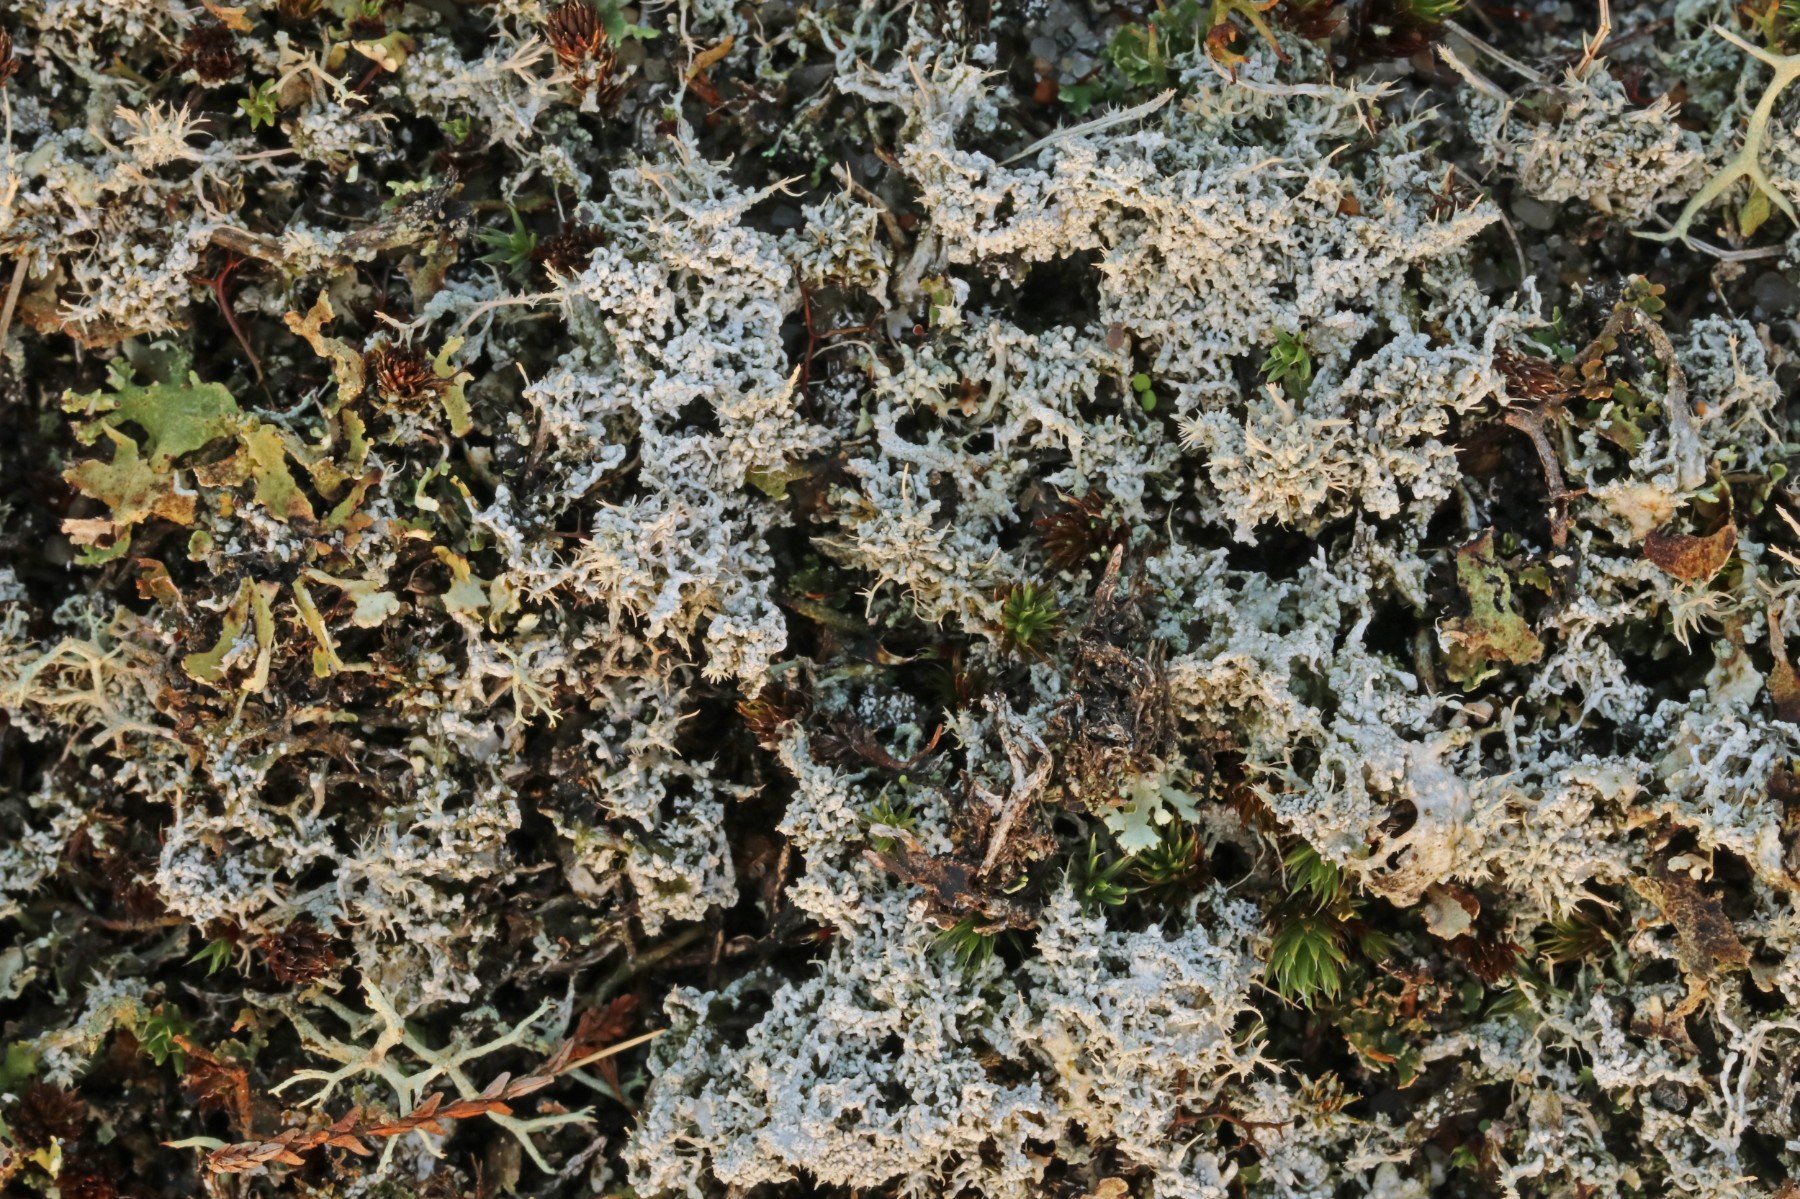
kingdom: Fungi
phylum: Ascomycota
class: Lecanoromycetes
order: Pertusariales
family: Ochrolechiaceae
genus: Ochrolechia
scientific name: Ochrolechia frigida
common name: fjeld-blegskivelav
